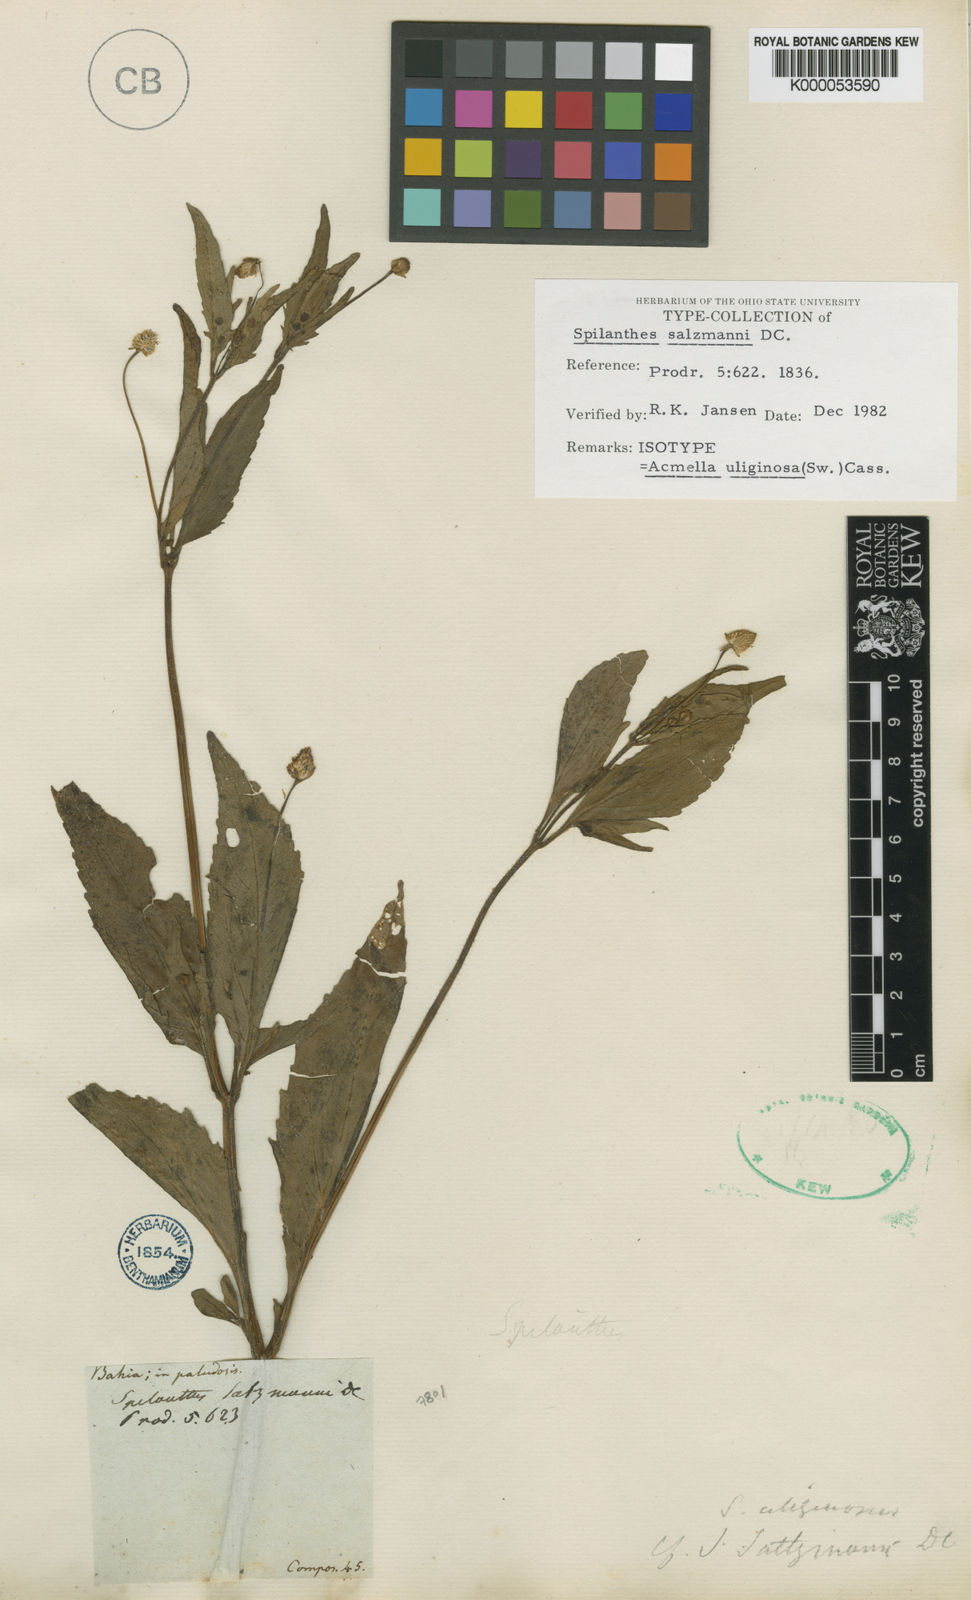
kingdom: Plantae
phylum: Tracheophyta
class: Magnoliopsida
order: Asterales
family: Asteraceae
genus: Acmella
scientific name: Acmella uliginosa
